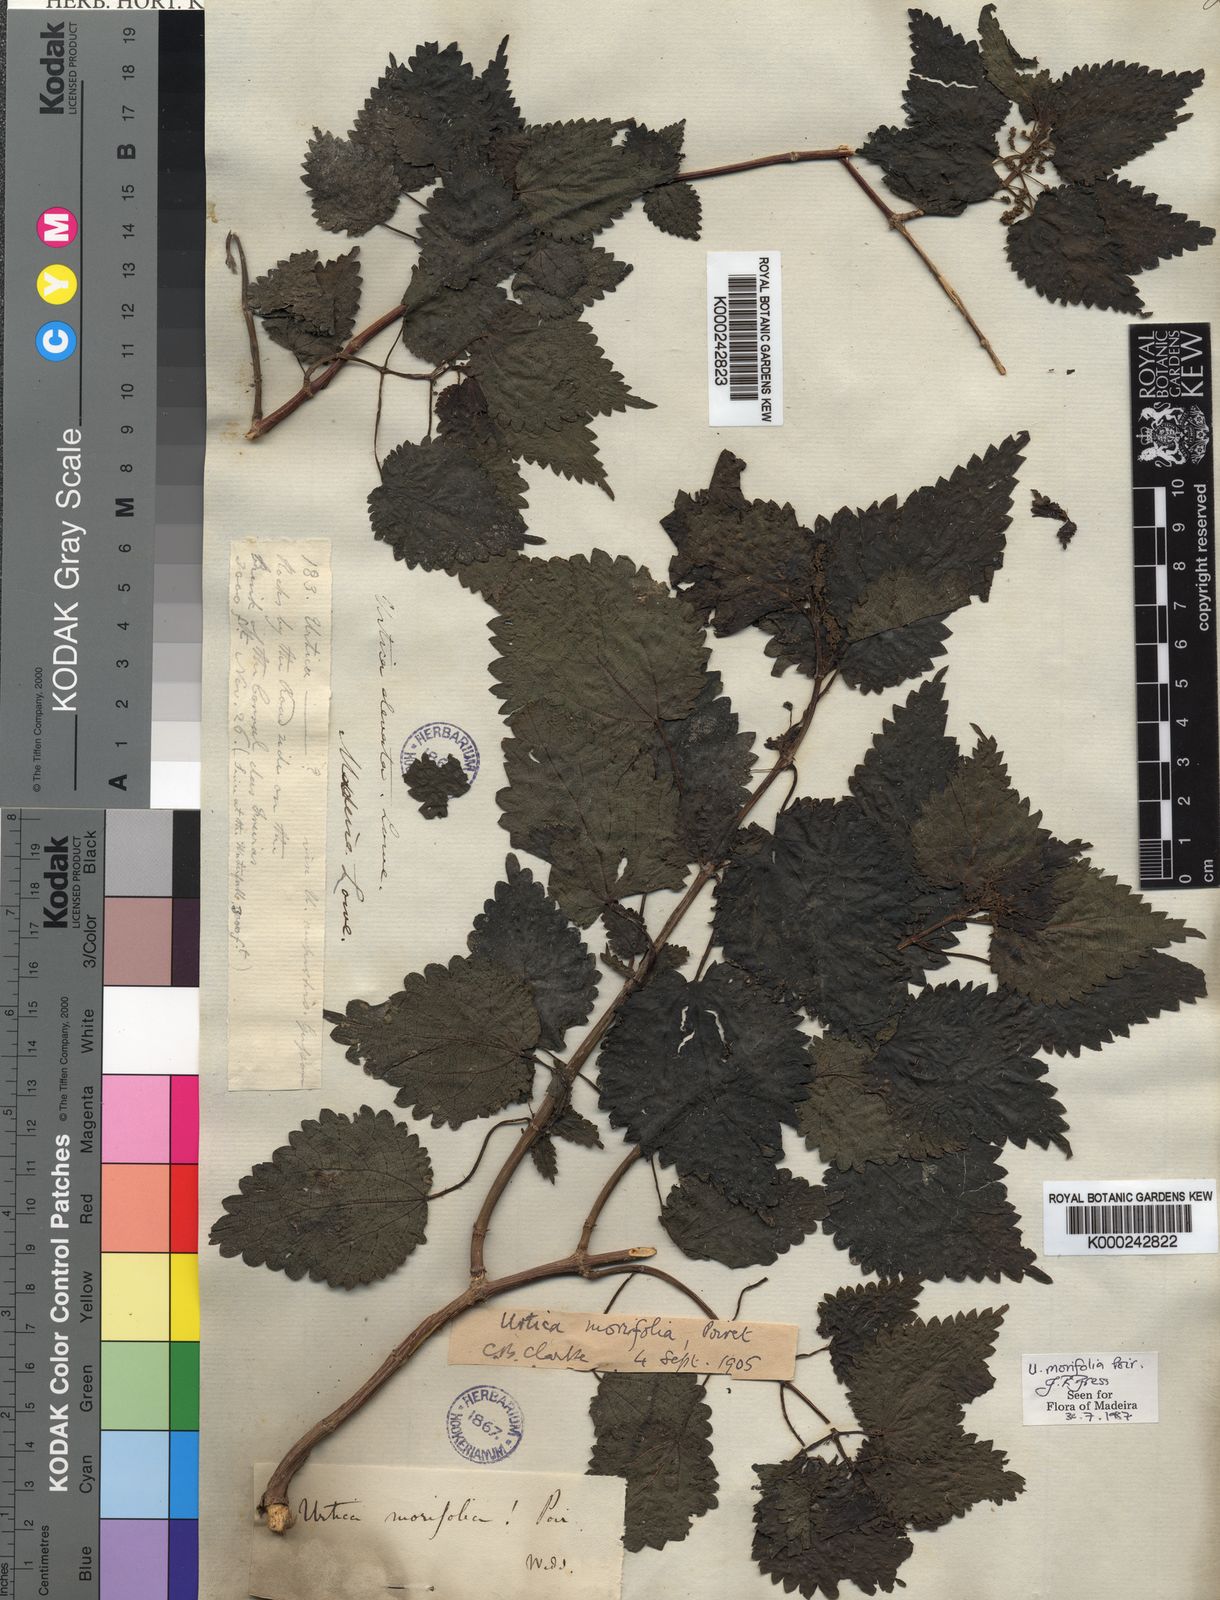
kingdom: Plantae
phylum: Tracheophyta
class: Magnoliopsida
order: Rosales
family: Urticaceae
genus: Urtica
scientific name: Urtica morifolia
